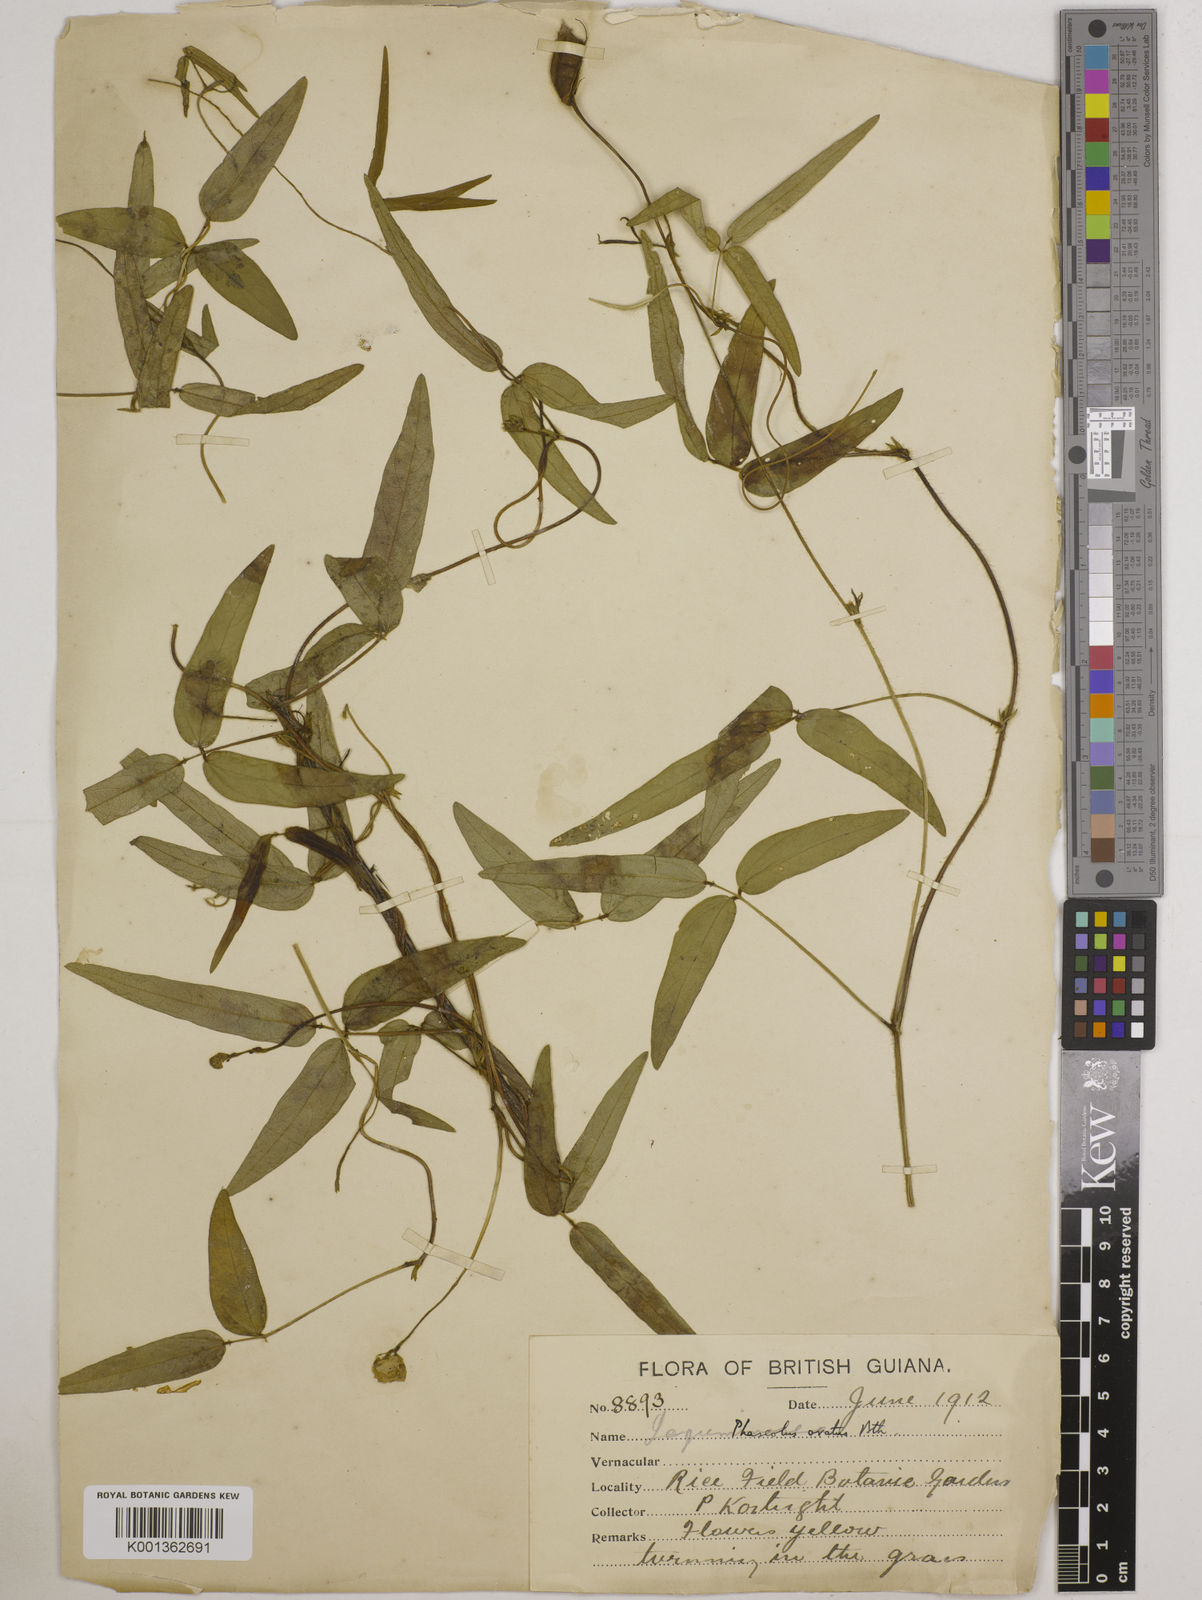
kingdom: Plantae
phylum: Tracheophyta
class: Magnoliopsida
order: Fabales
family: Fabaceae
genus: Vigna
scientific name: Vigna longifolia
